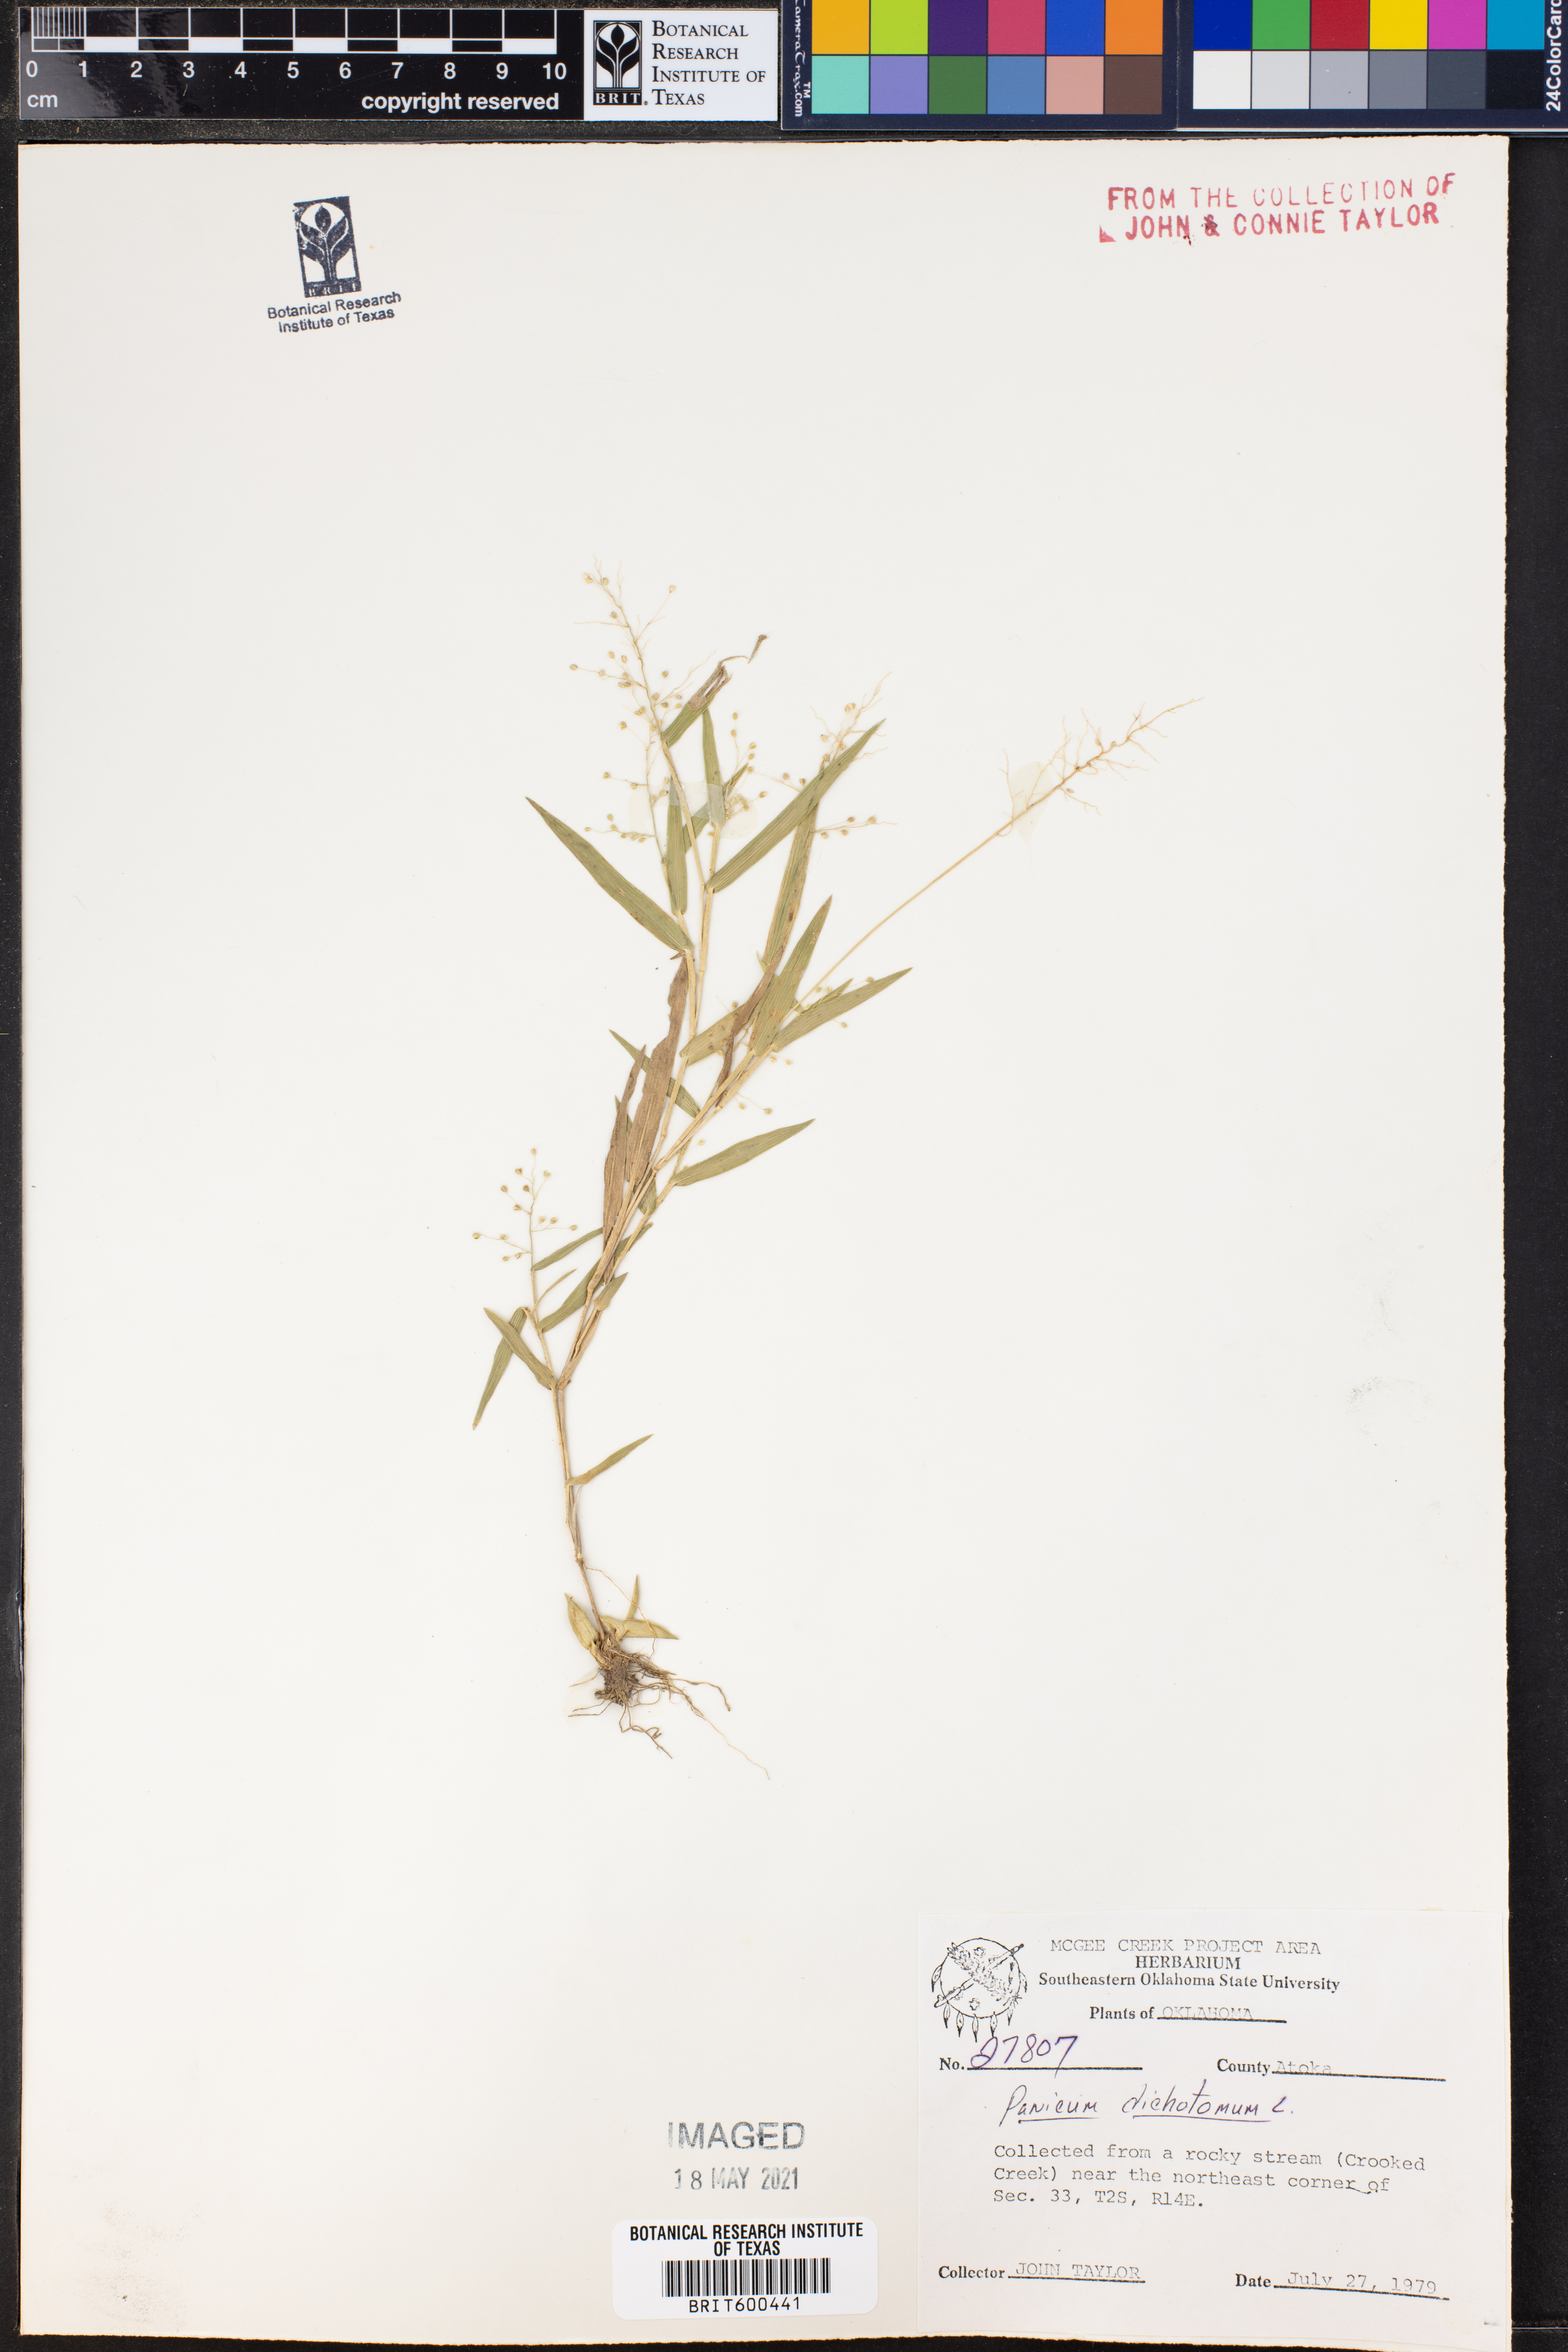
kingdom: Plantae
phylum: Tracheophyta
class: Liliopsida
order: Poales
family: Poaceae
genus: Dichanthelium
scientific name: Dichanthelium dichotomum
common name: Cypress panicgrass
